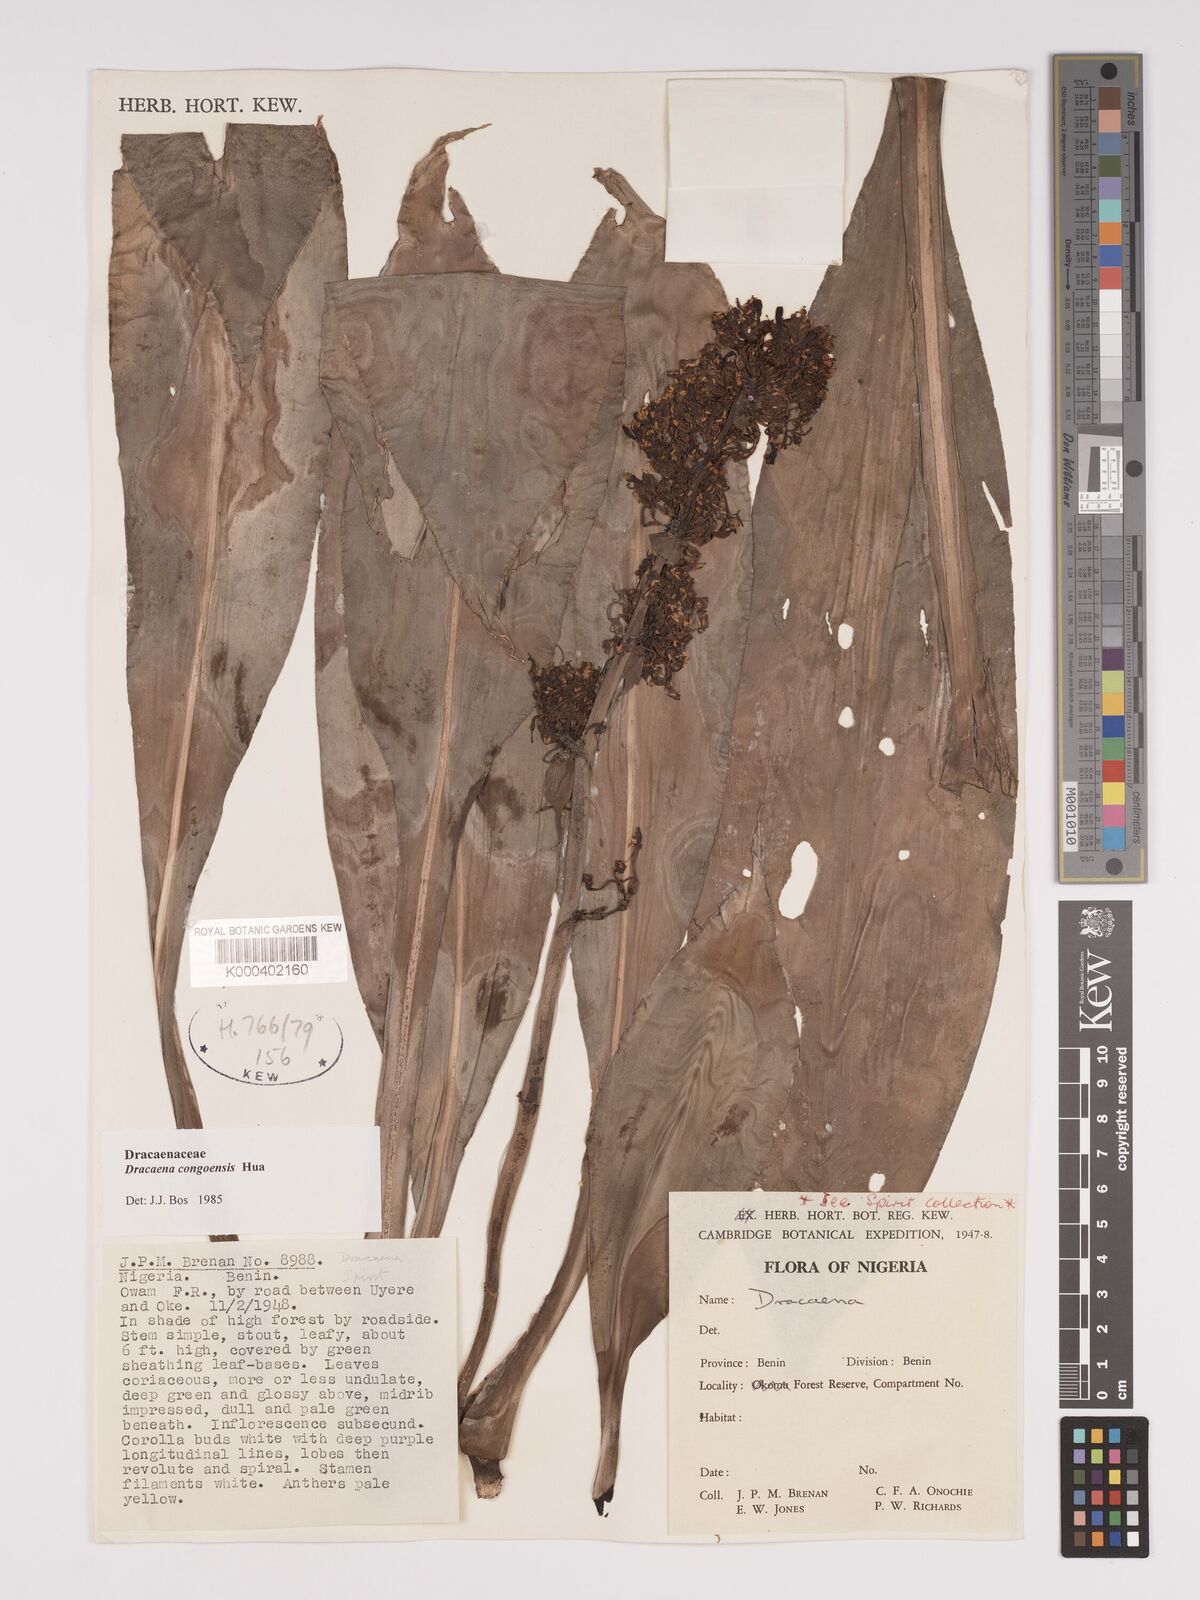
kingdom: Plantae
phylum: Tracheophyta
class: Liliopsida
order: Asparagales
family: Asparagaceae
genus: Dracaena
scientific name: Dracaena congoensis
